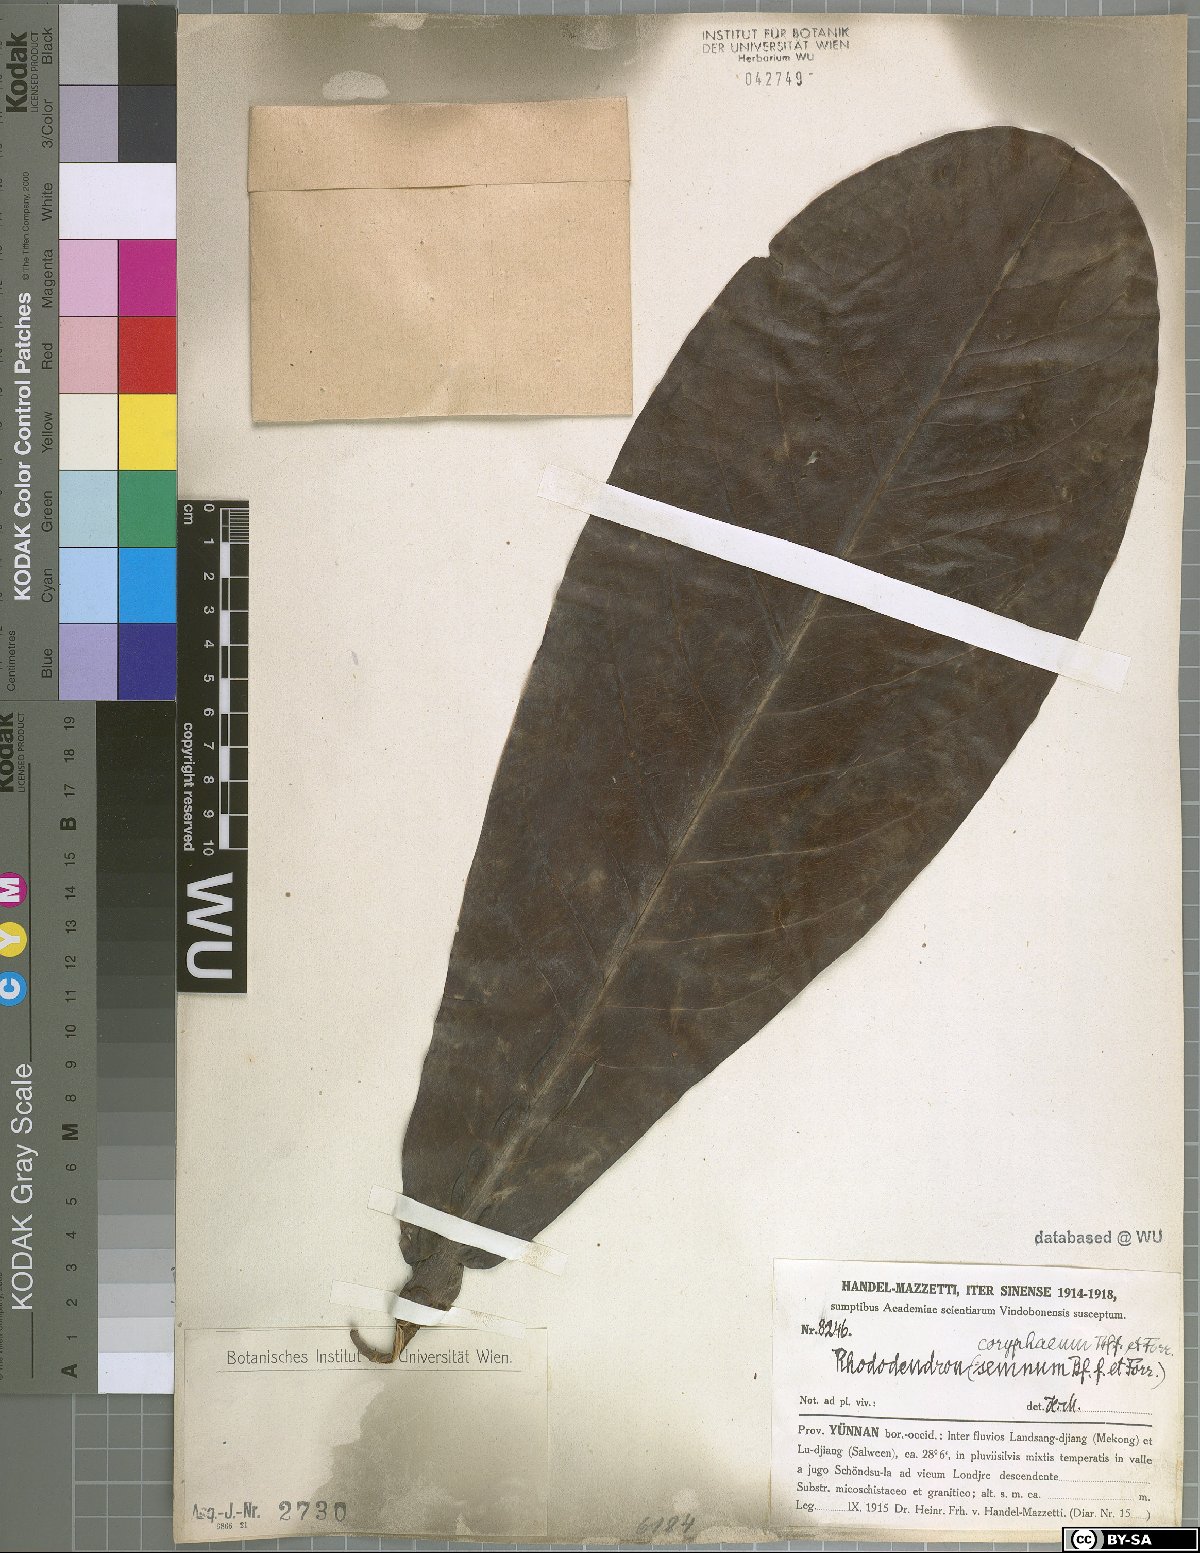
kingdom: Plantae
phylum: Tracheophyta
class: Magnoliopsida
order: Ericales
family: Ericaceae
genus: Rhododendron
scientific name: Rhododendron praestans
